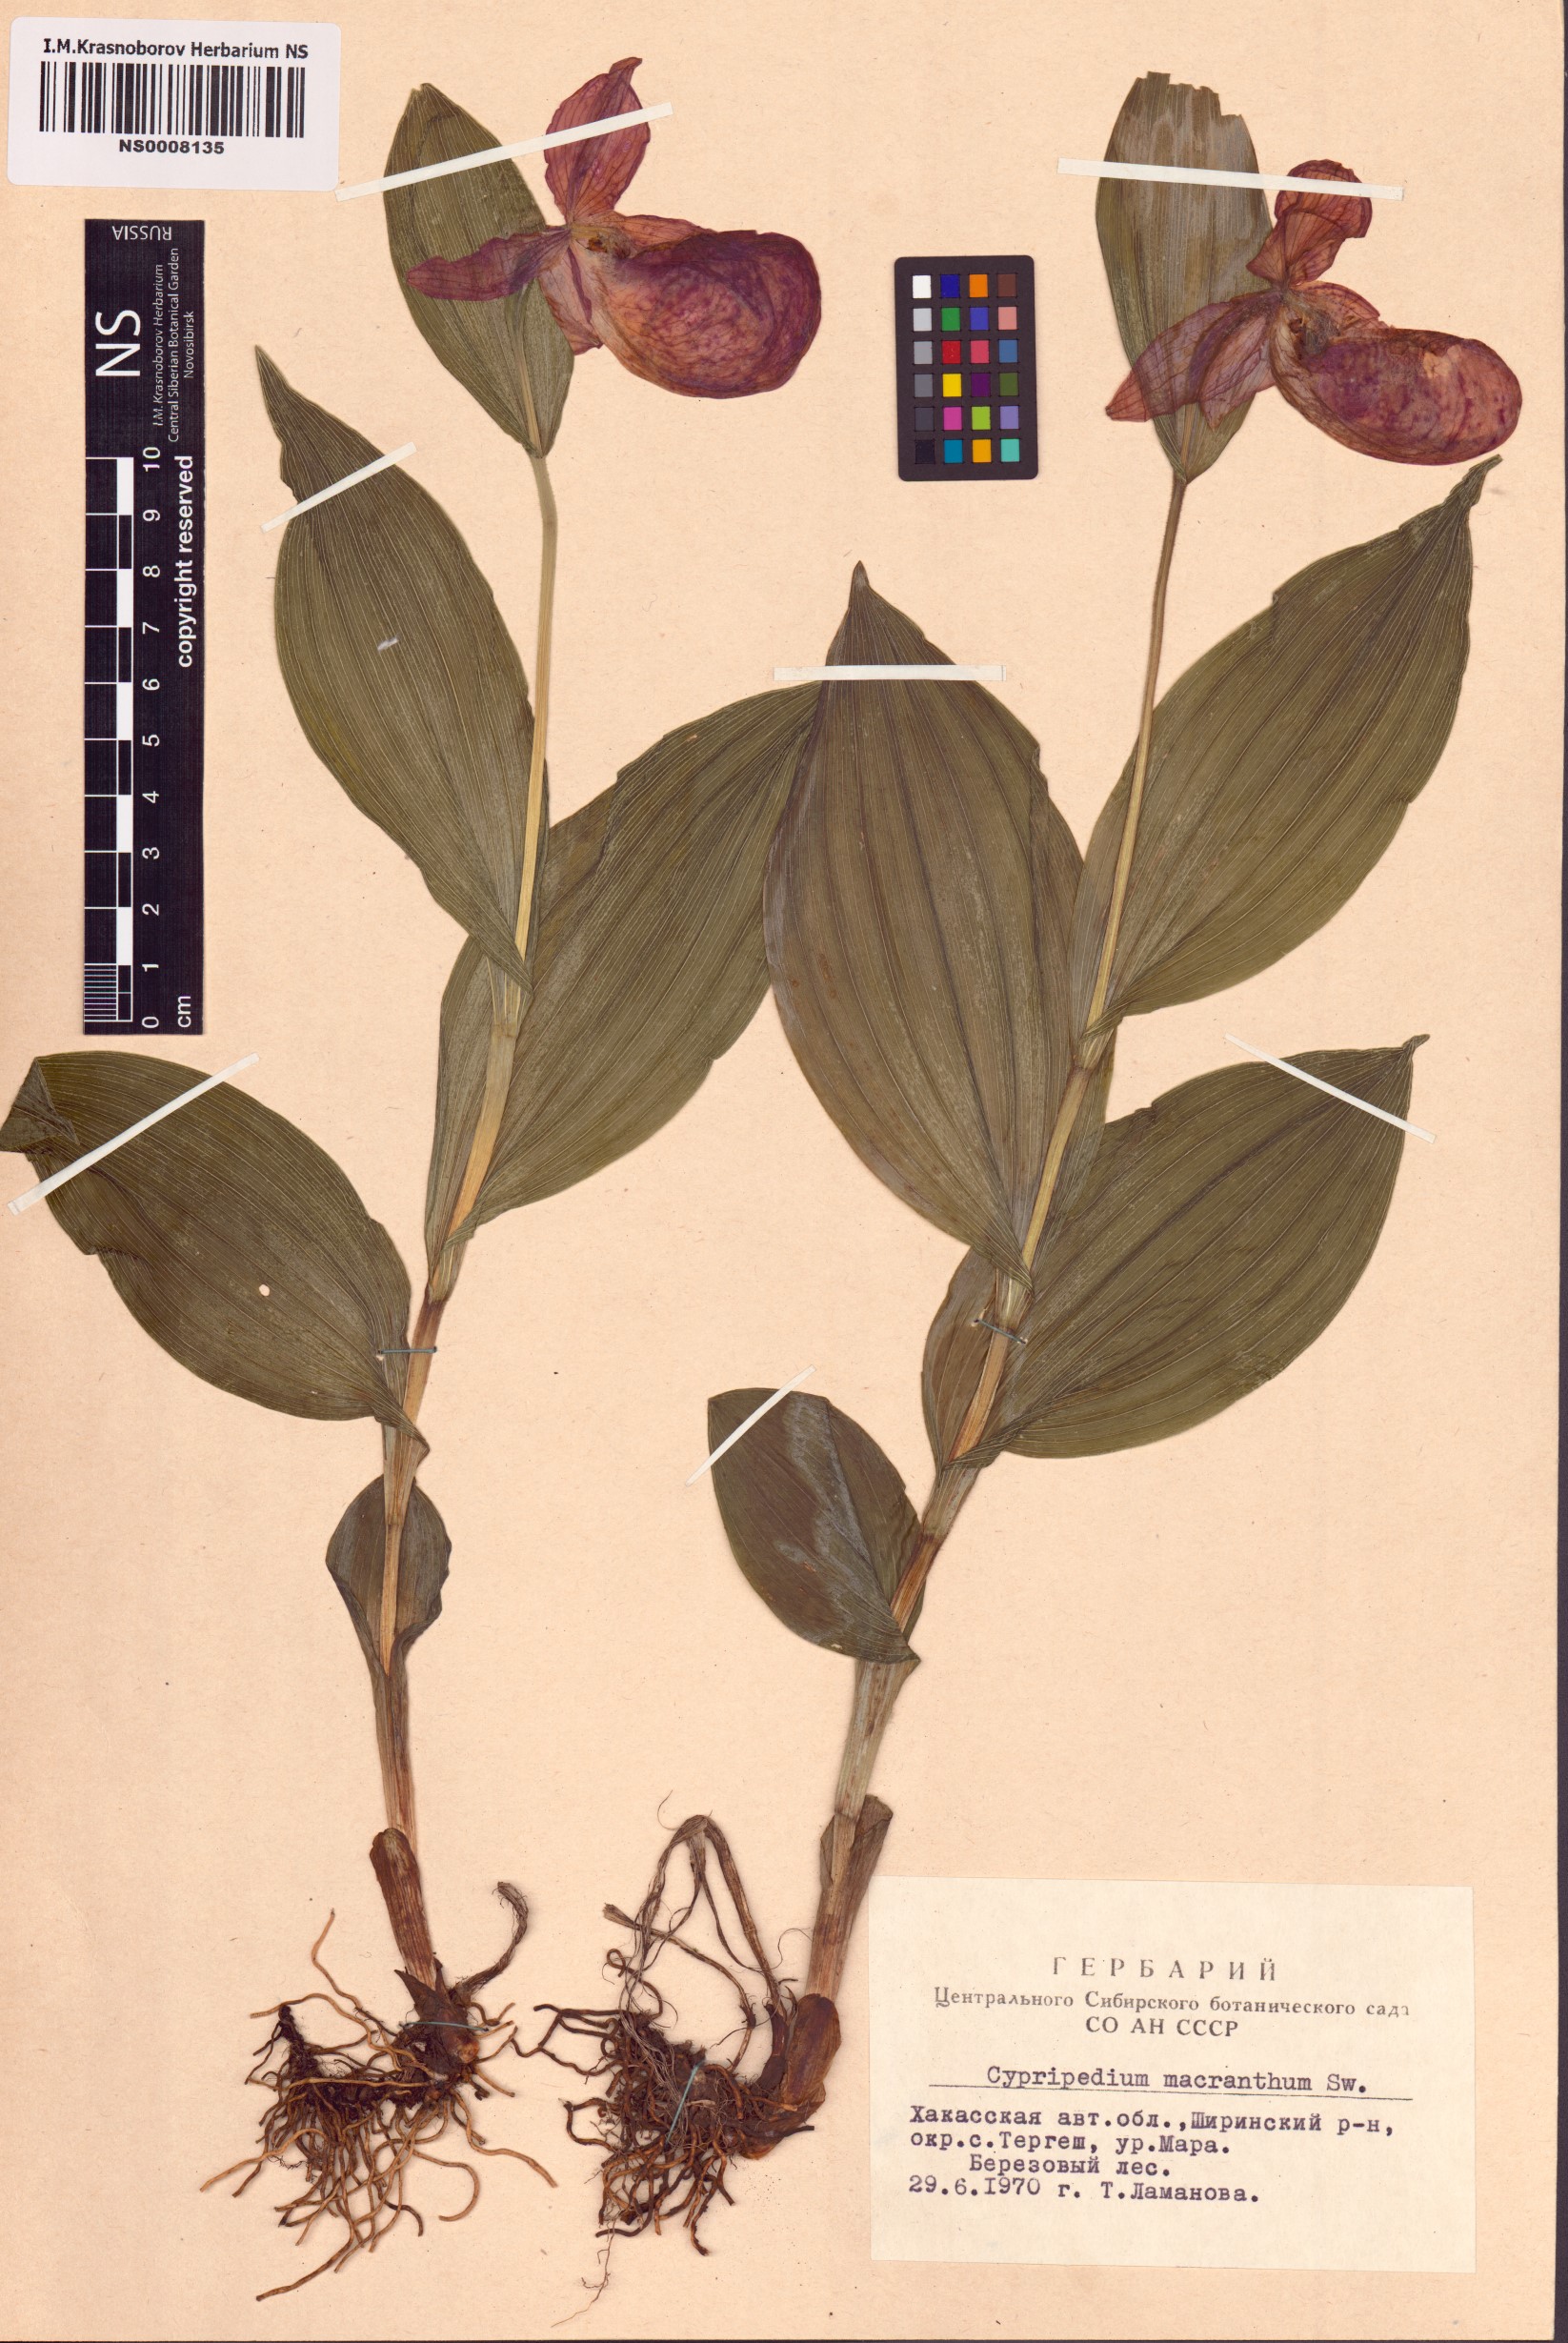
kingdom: Plantae
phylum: Tracheophyta
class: Liliopsida
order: Asparagales
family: Orchidaceae
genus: Cypripedium
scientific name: Cypripedium macranthos
